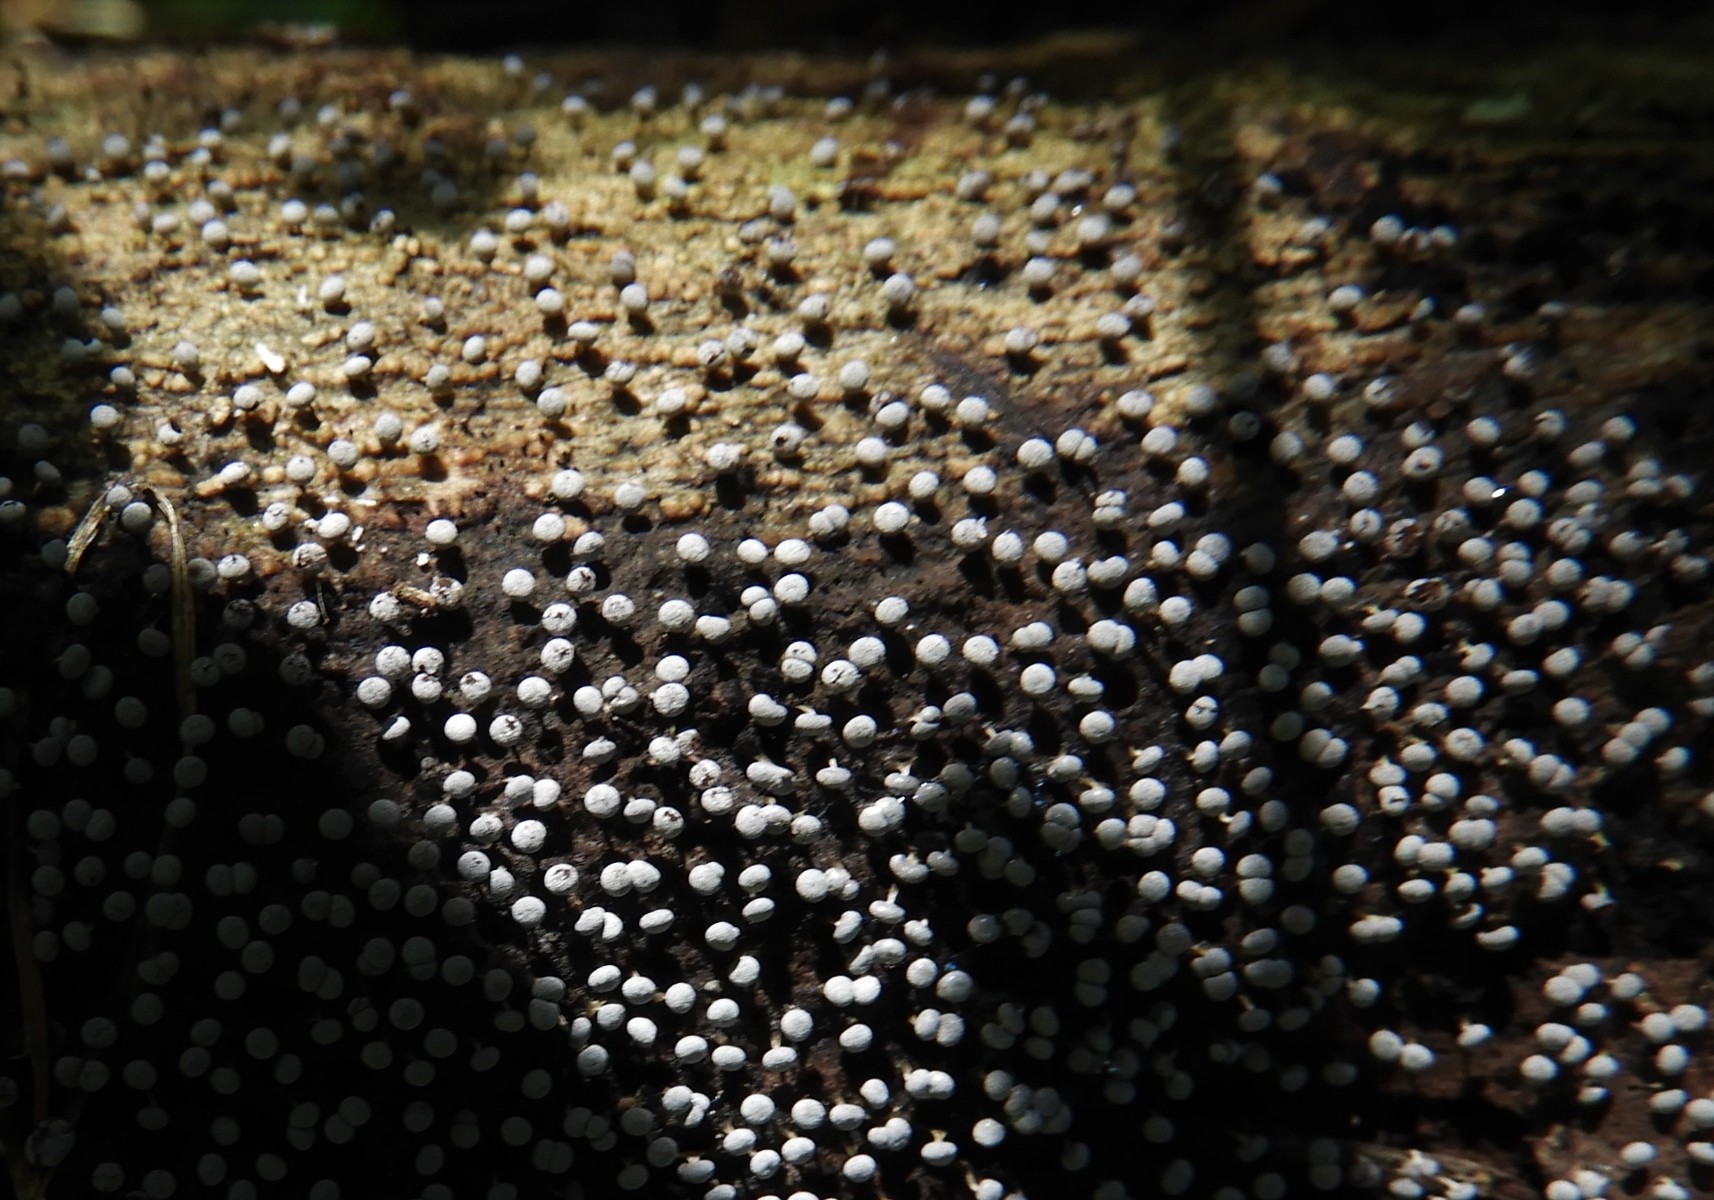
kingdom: Protozoa
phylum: Mycetozoa
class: Myxomycetes
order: Physarales
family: Physaraceae
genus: Physarum
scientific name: Physarum
